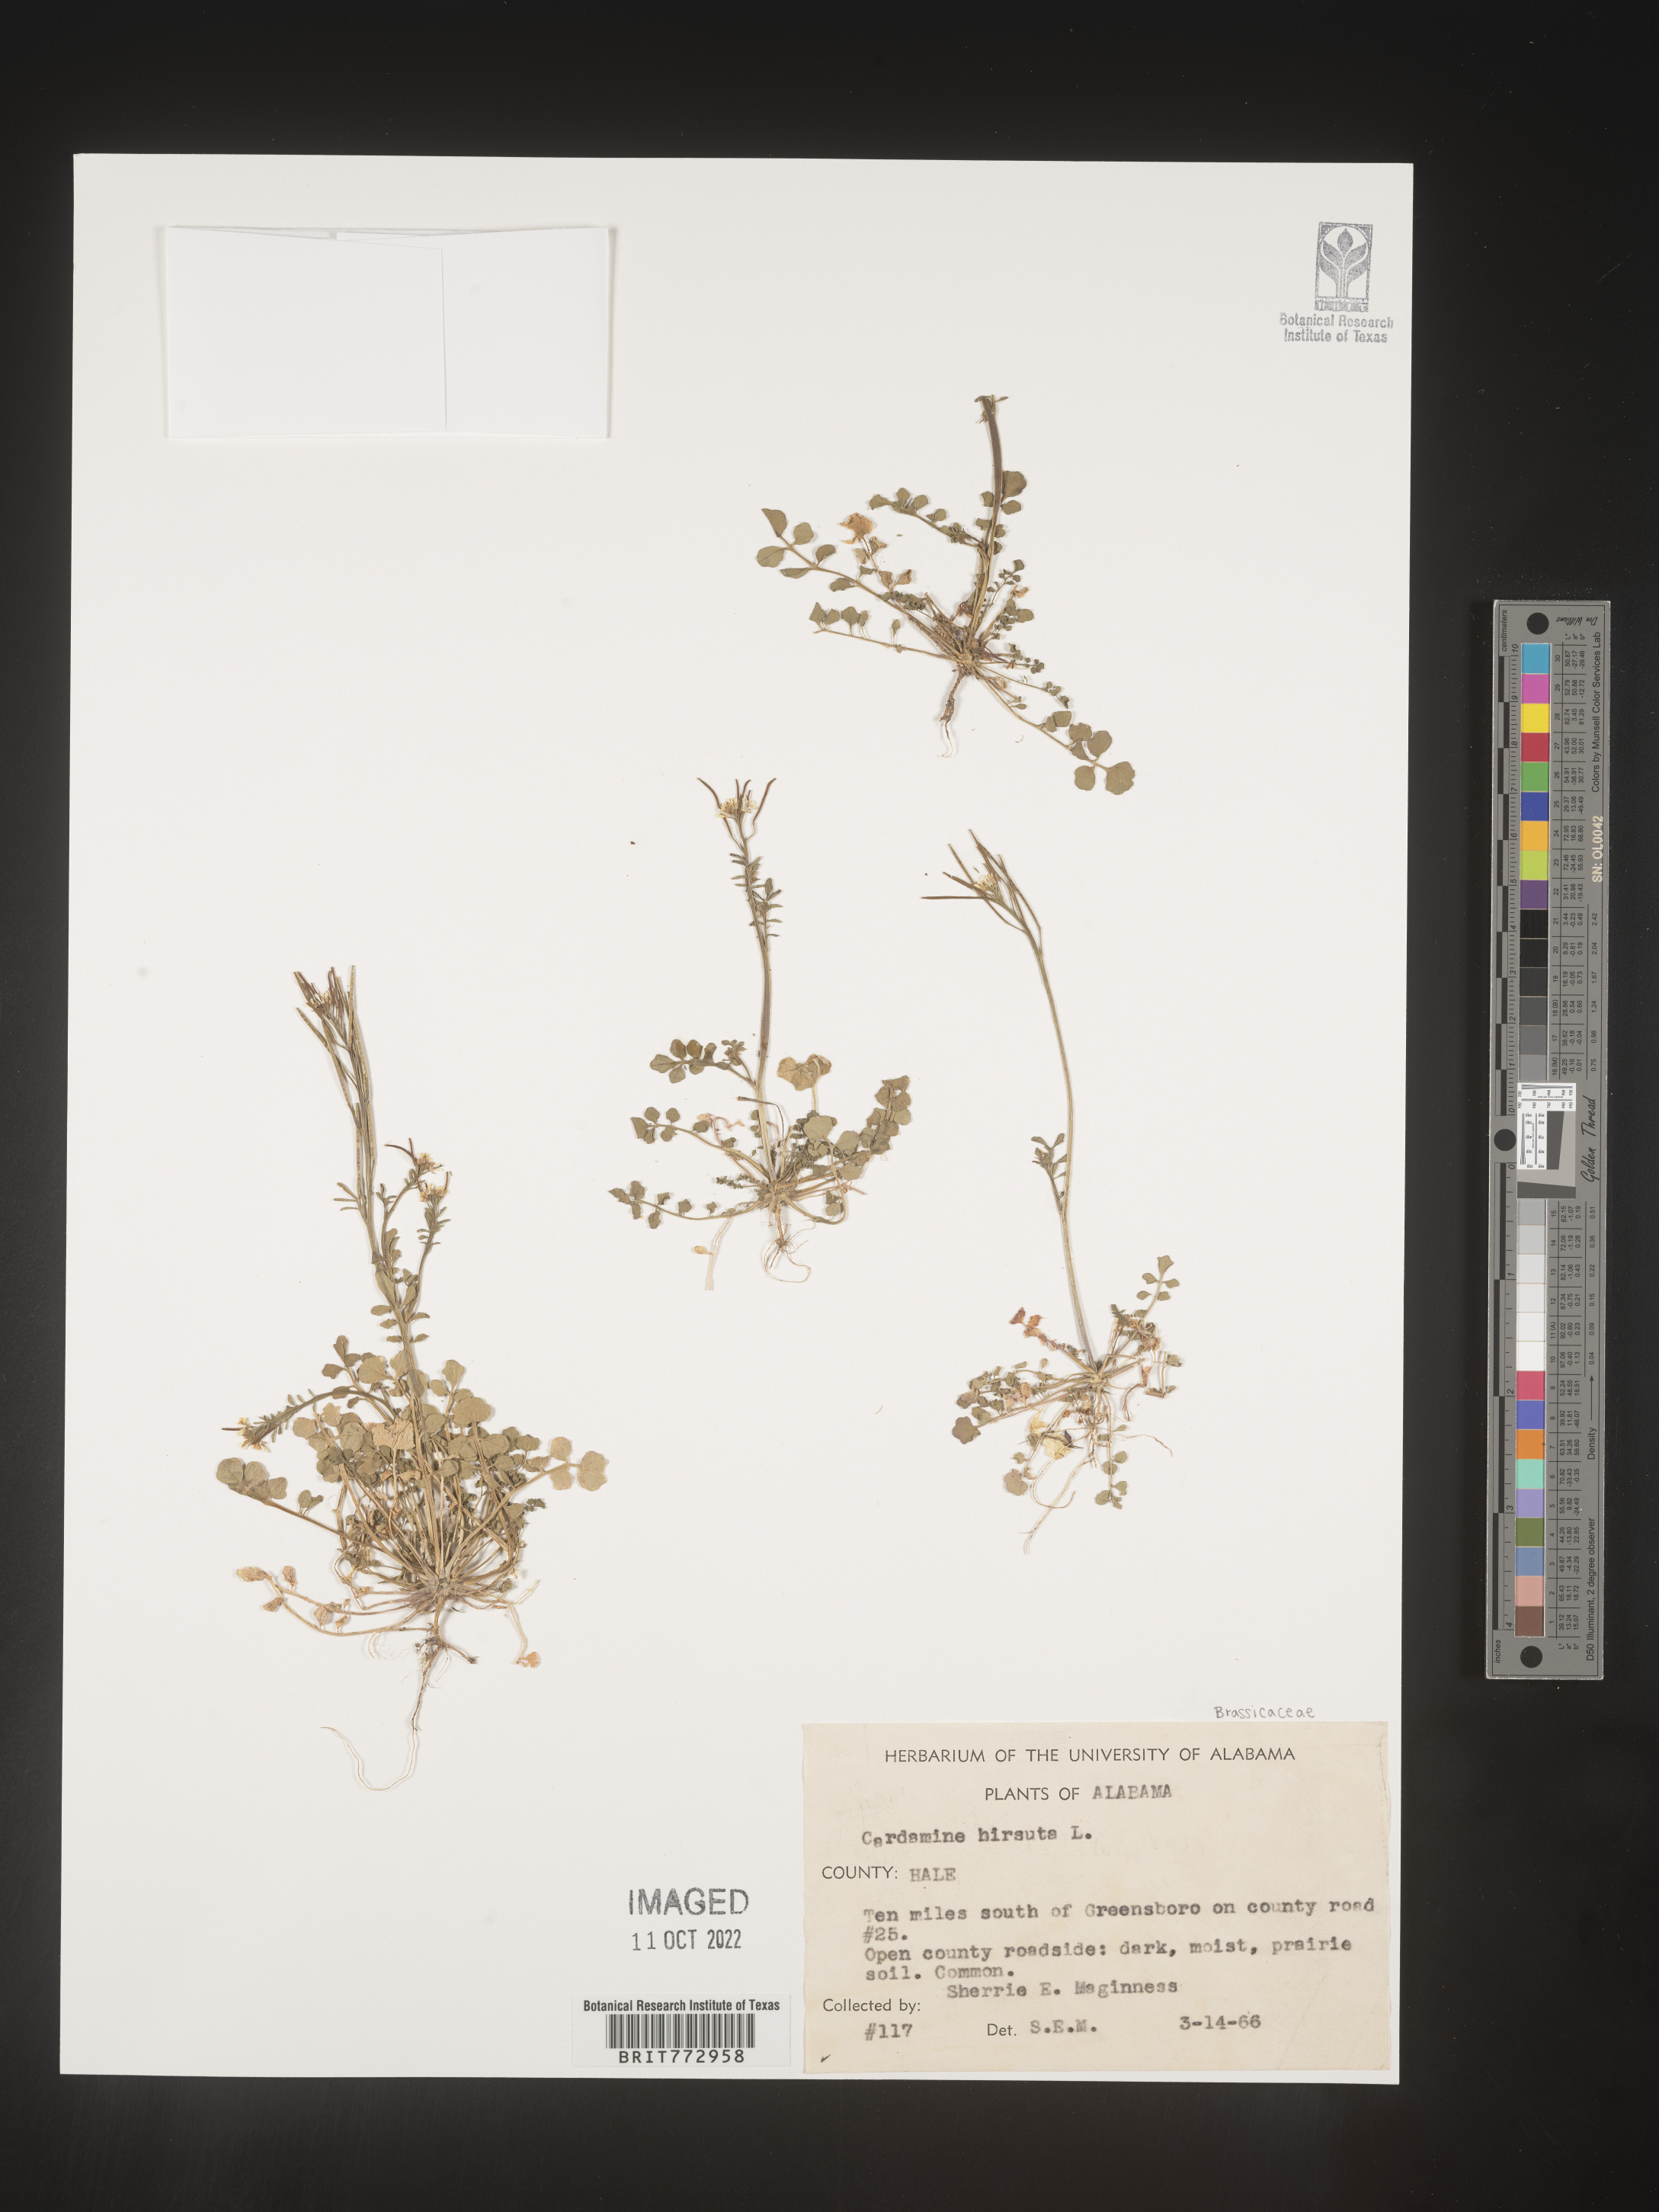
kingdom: Plantae
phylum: Tracheophyta
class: Magnoliopsida
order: Brassicales
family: Brassicaceae
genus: Cardamine
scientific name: Cardamine hirsuta
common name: Hairy bittercress
